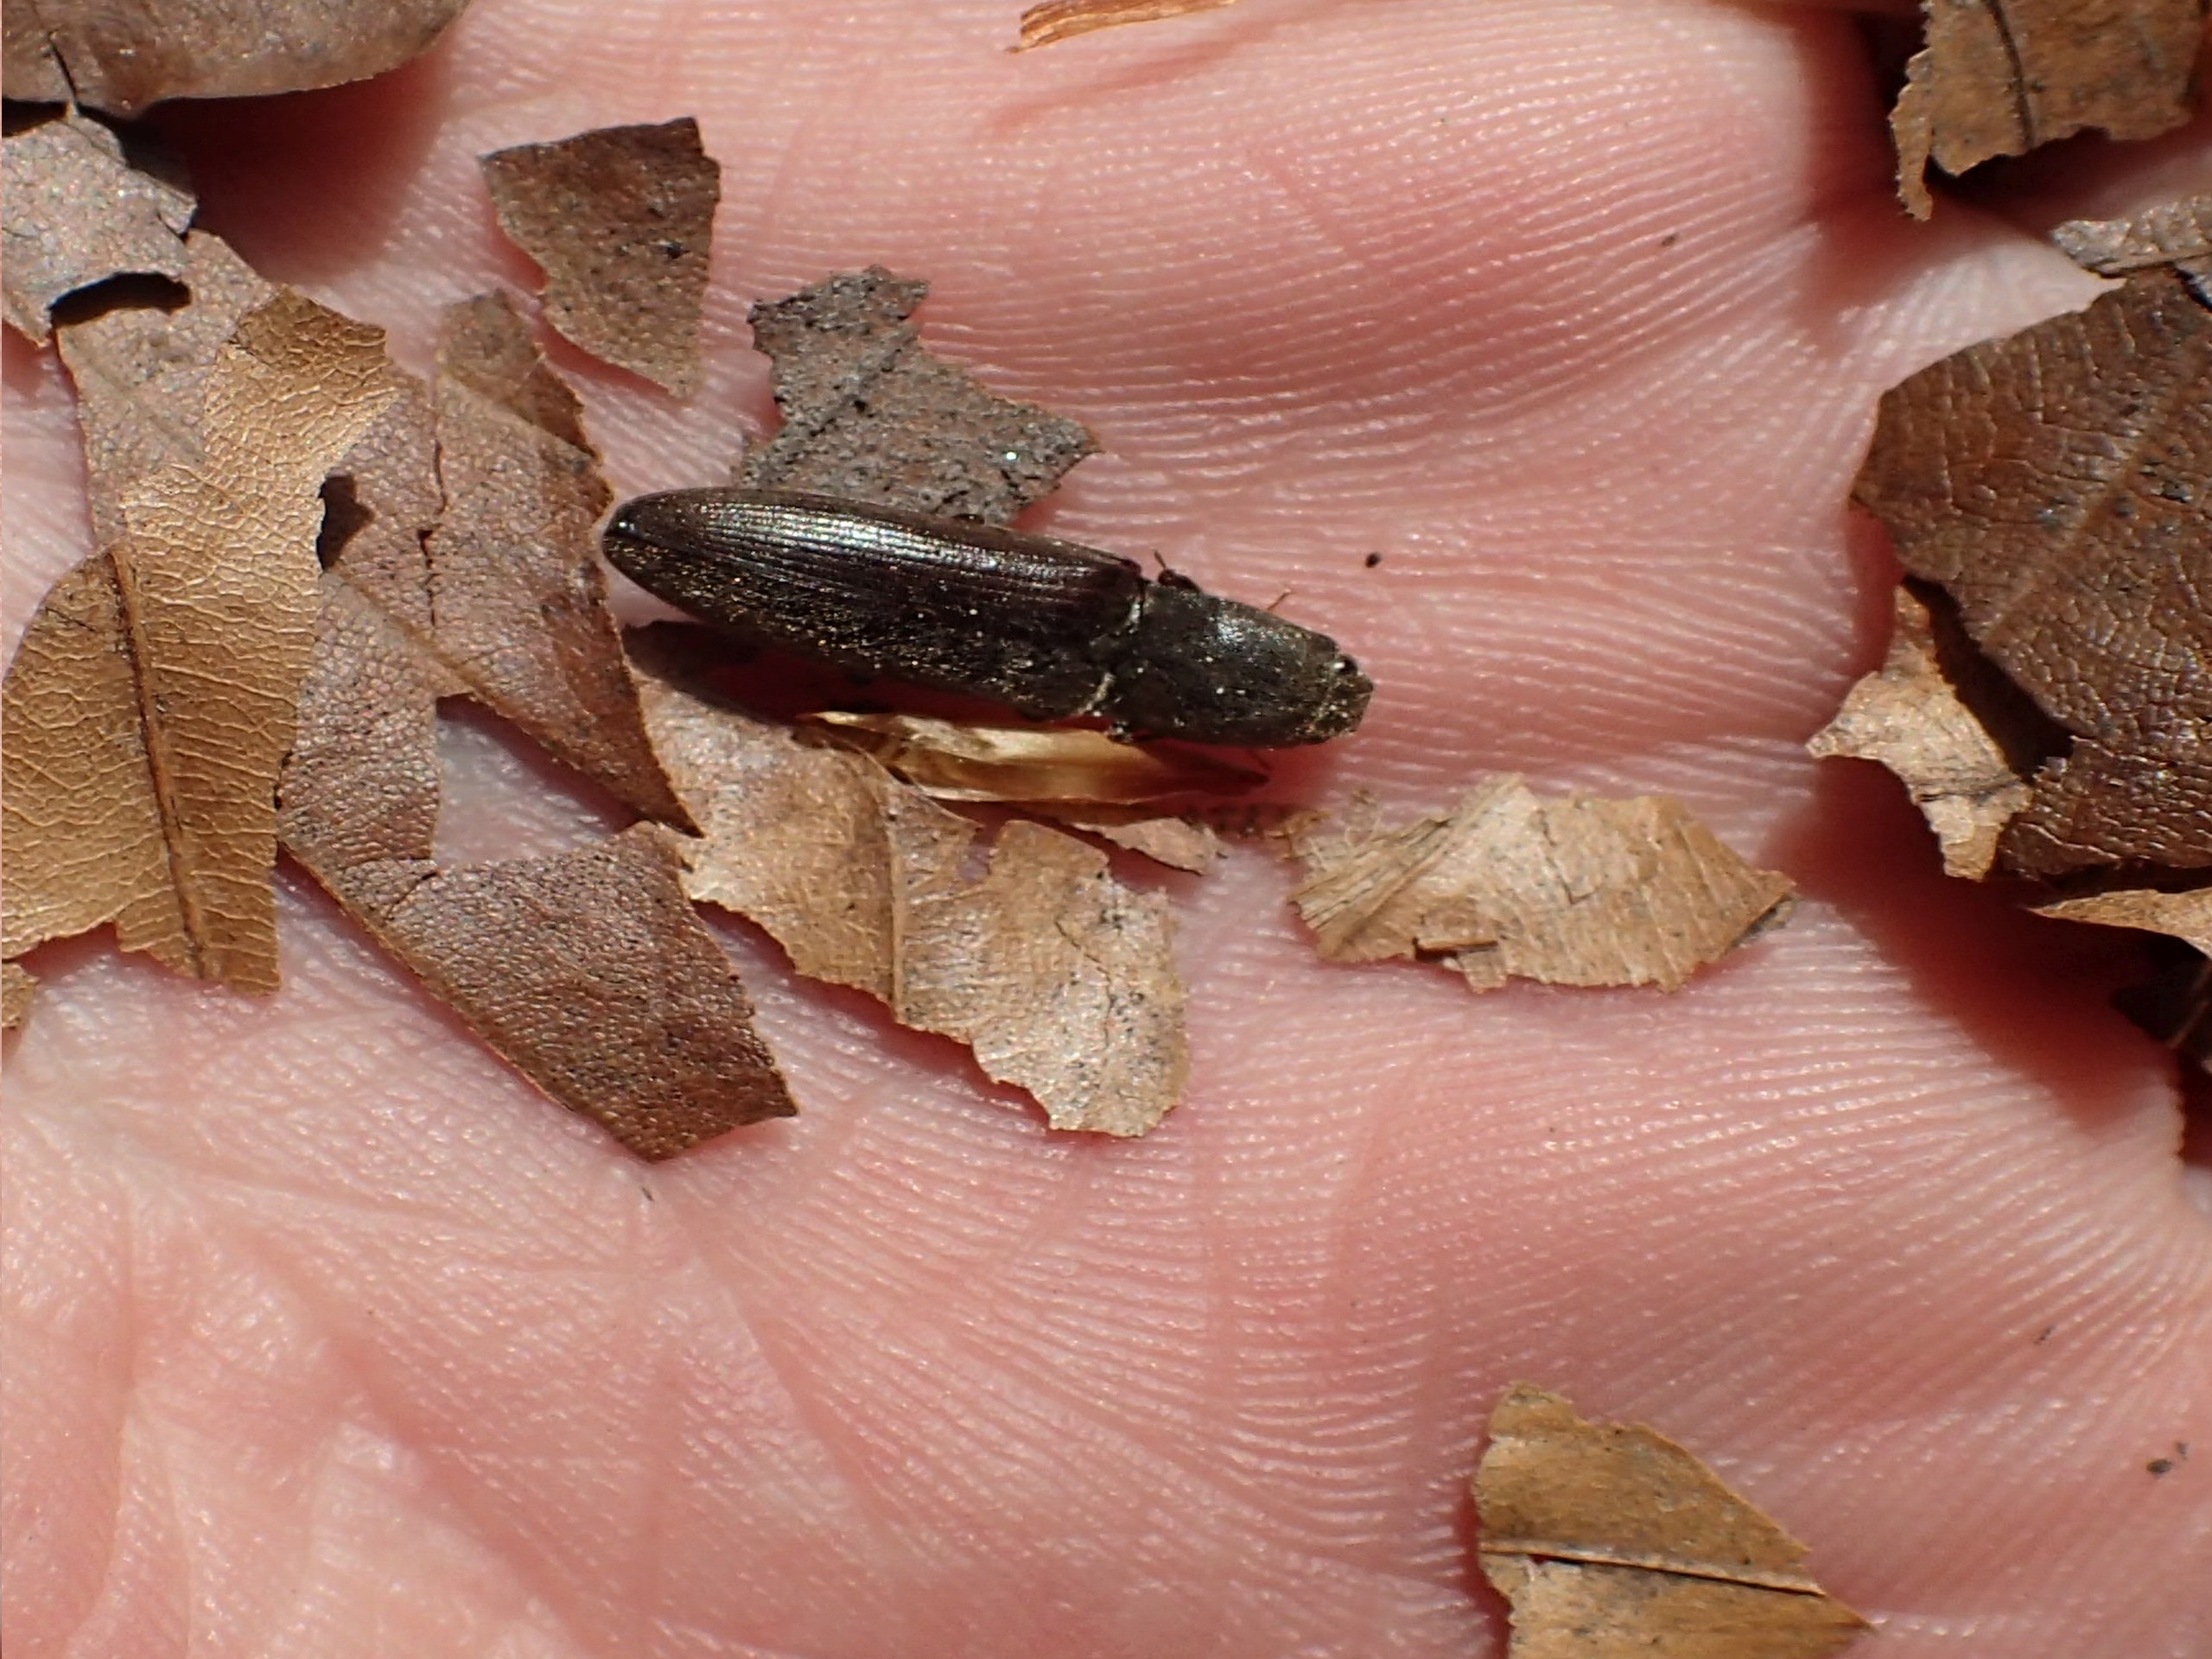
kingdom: Animalia
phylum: Arthropoda
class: Insecta
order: Coleoptera
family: Elateridae
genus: Athous
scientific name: Athous haemorrhoidalis
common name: Rødhalet busksmælder
